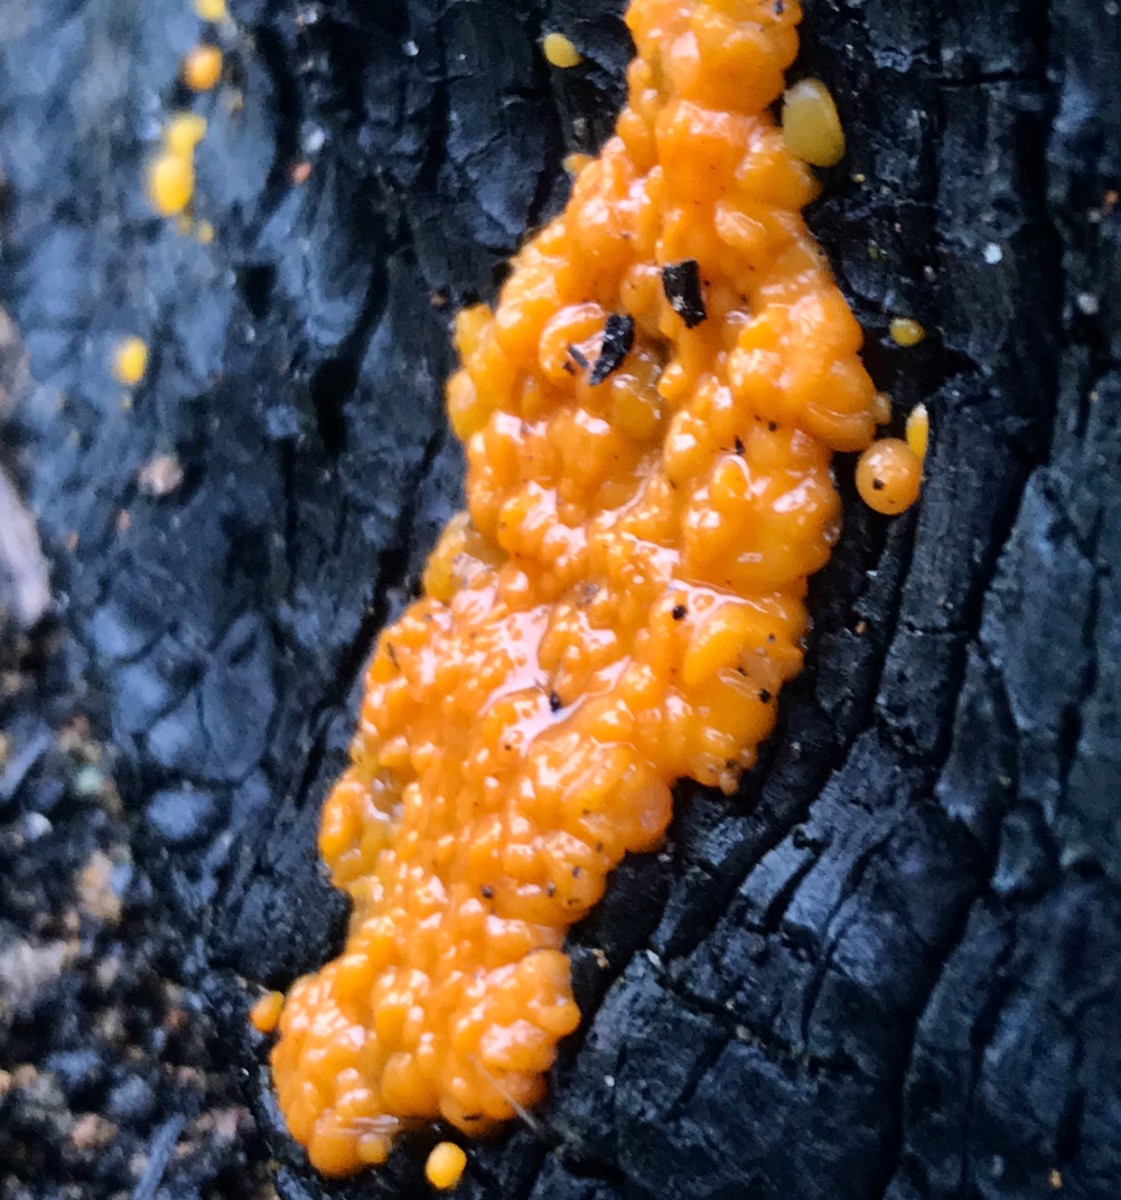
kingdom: Fungi
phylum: Basidiomycota
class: Dacrymycetes
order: Dacrymycetales
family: Dacrymycetaceae
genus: Dacrymyces
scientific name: Dacrymyces stillatus
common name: almindelig tåresvamp
